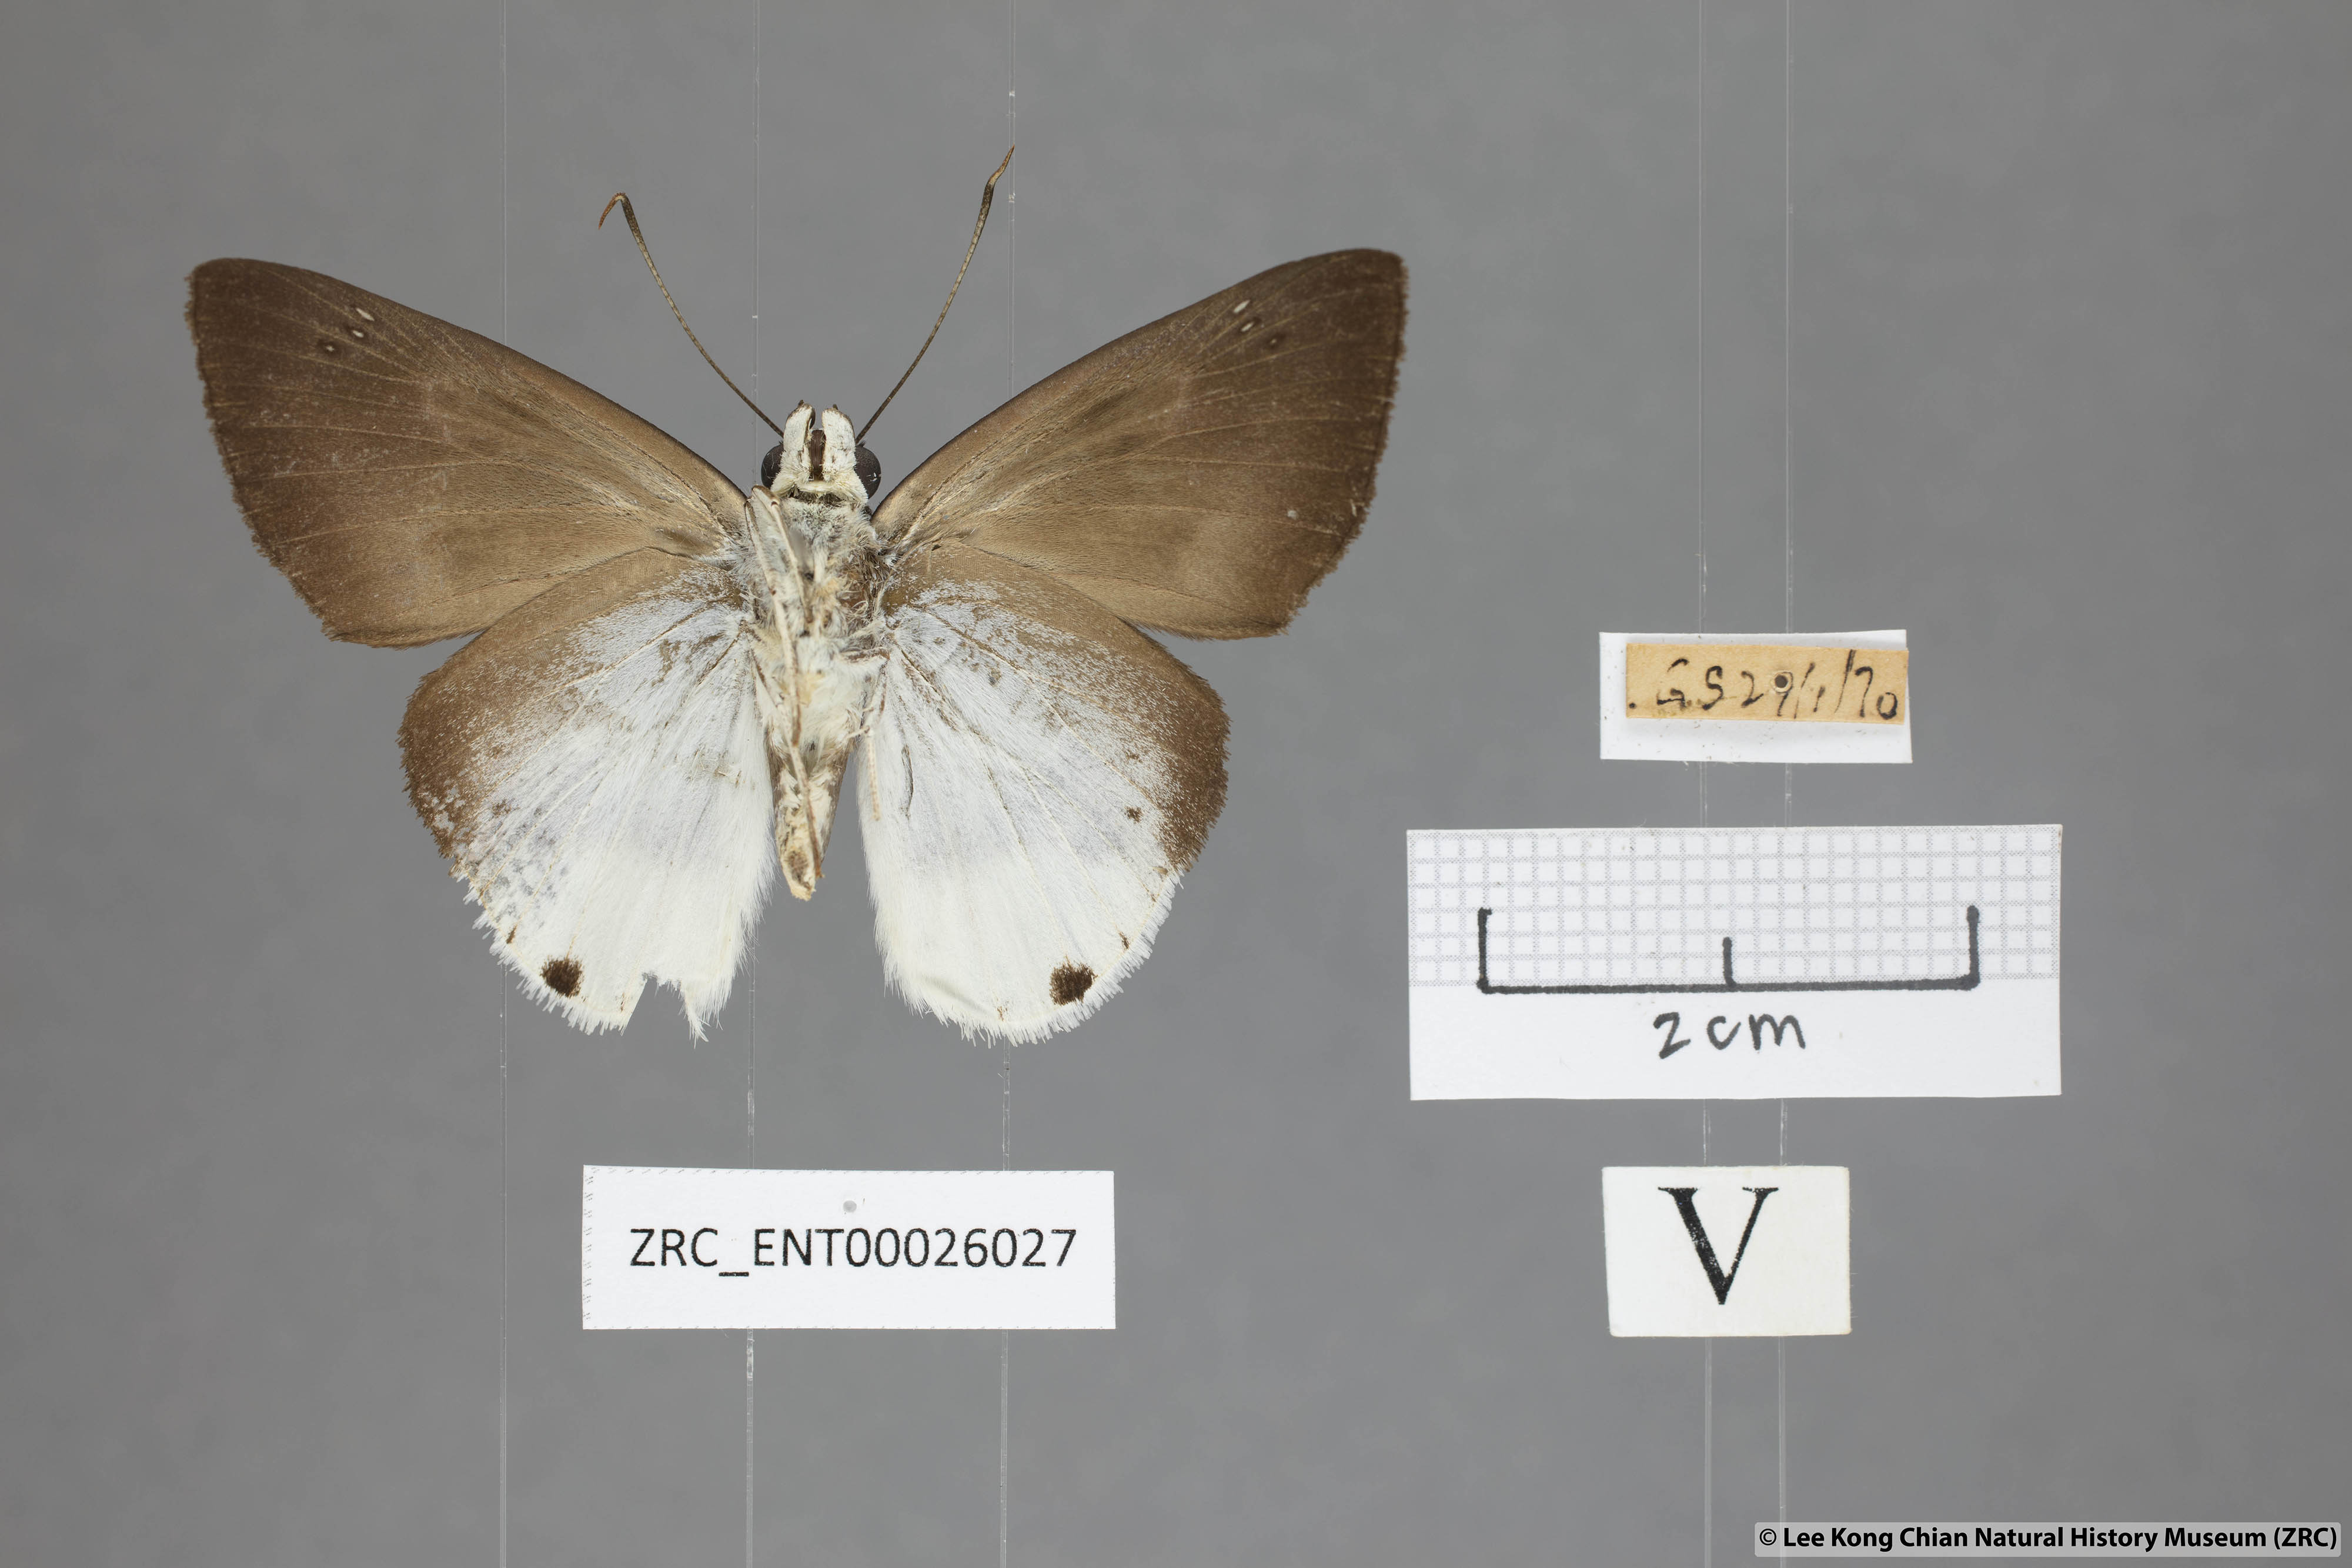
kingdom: Animalia
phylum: Arthropoda
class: Insecta
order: Lepidoptera
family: Hesperiidae
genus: Tagiades
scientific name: Tagiades parra
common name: Straight snow flat
